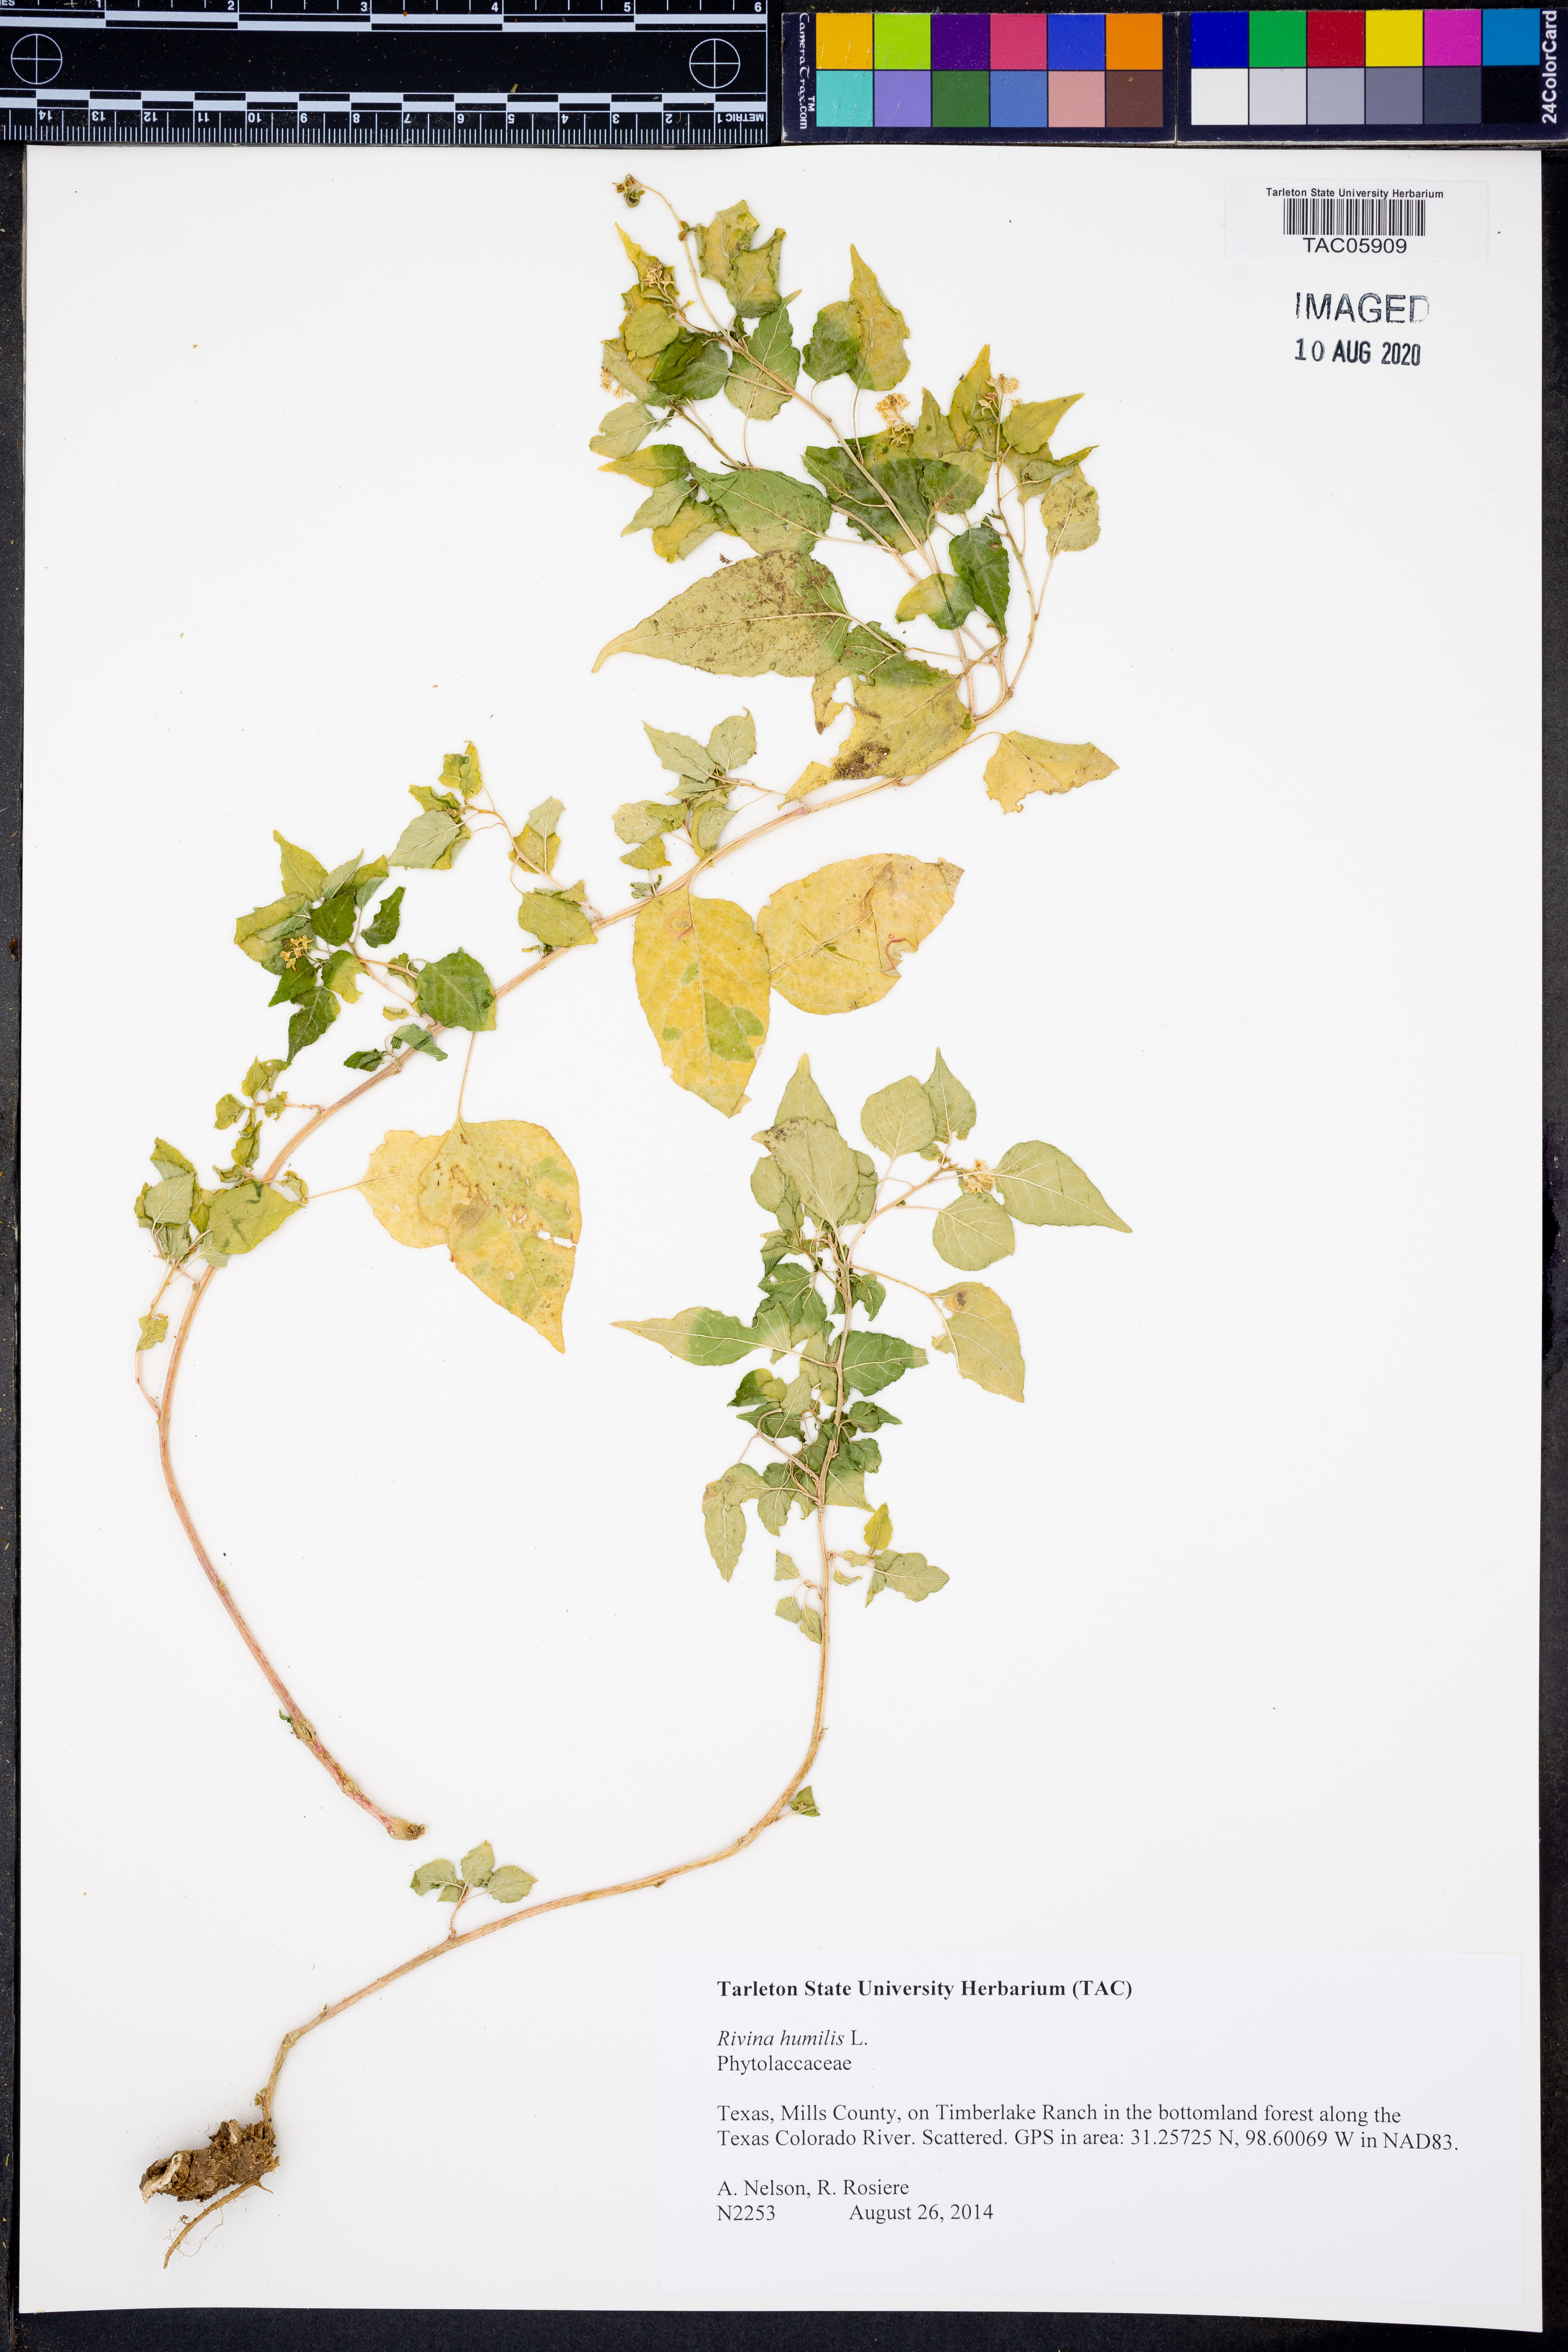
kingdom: Plantae
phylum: Tracheophyta
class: Magnoliopsida
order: Caryophyllales
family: Phytolaccaceae
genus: Rivina
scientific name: Rivina humilis
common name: Rougeplant
